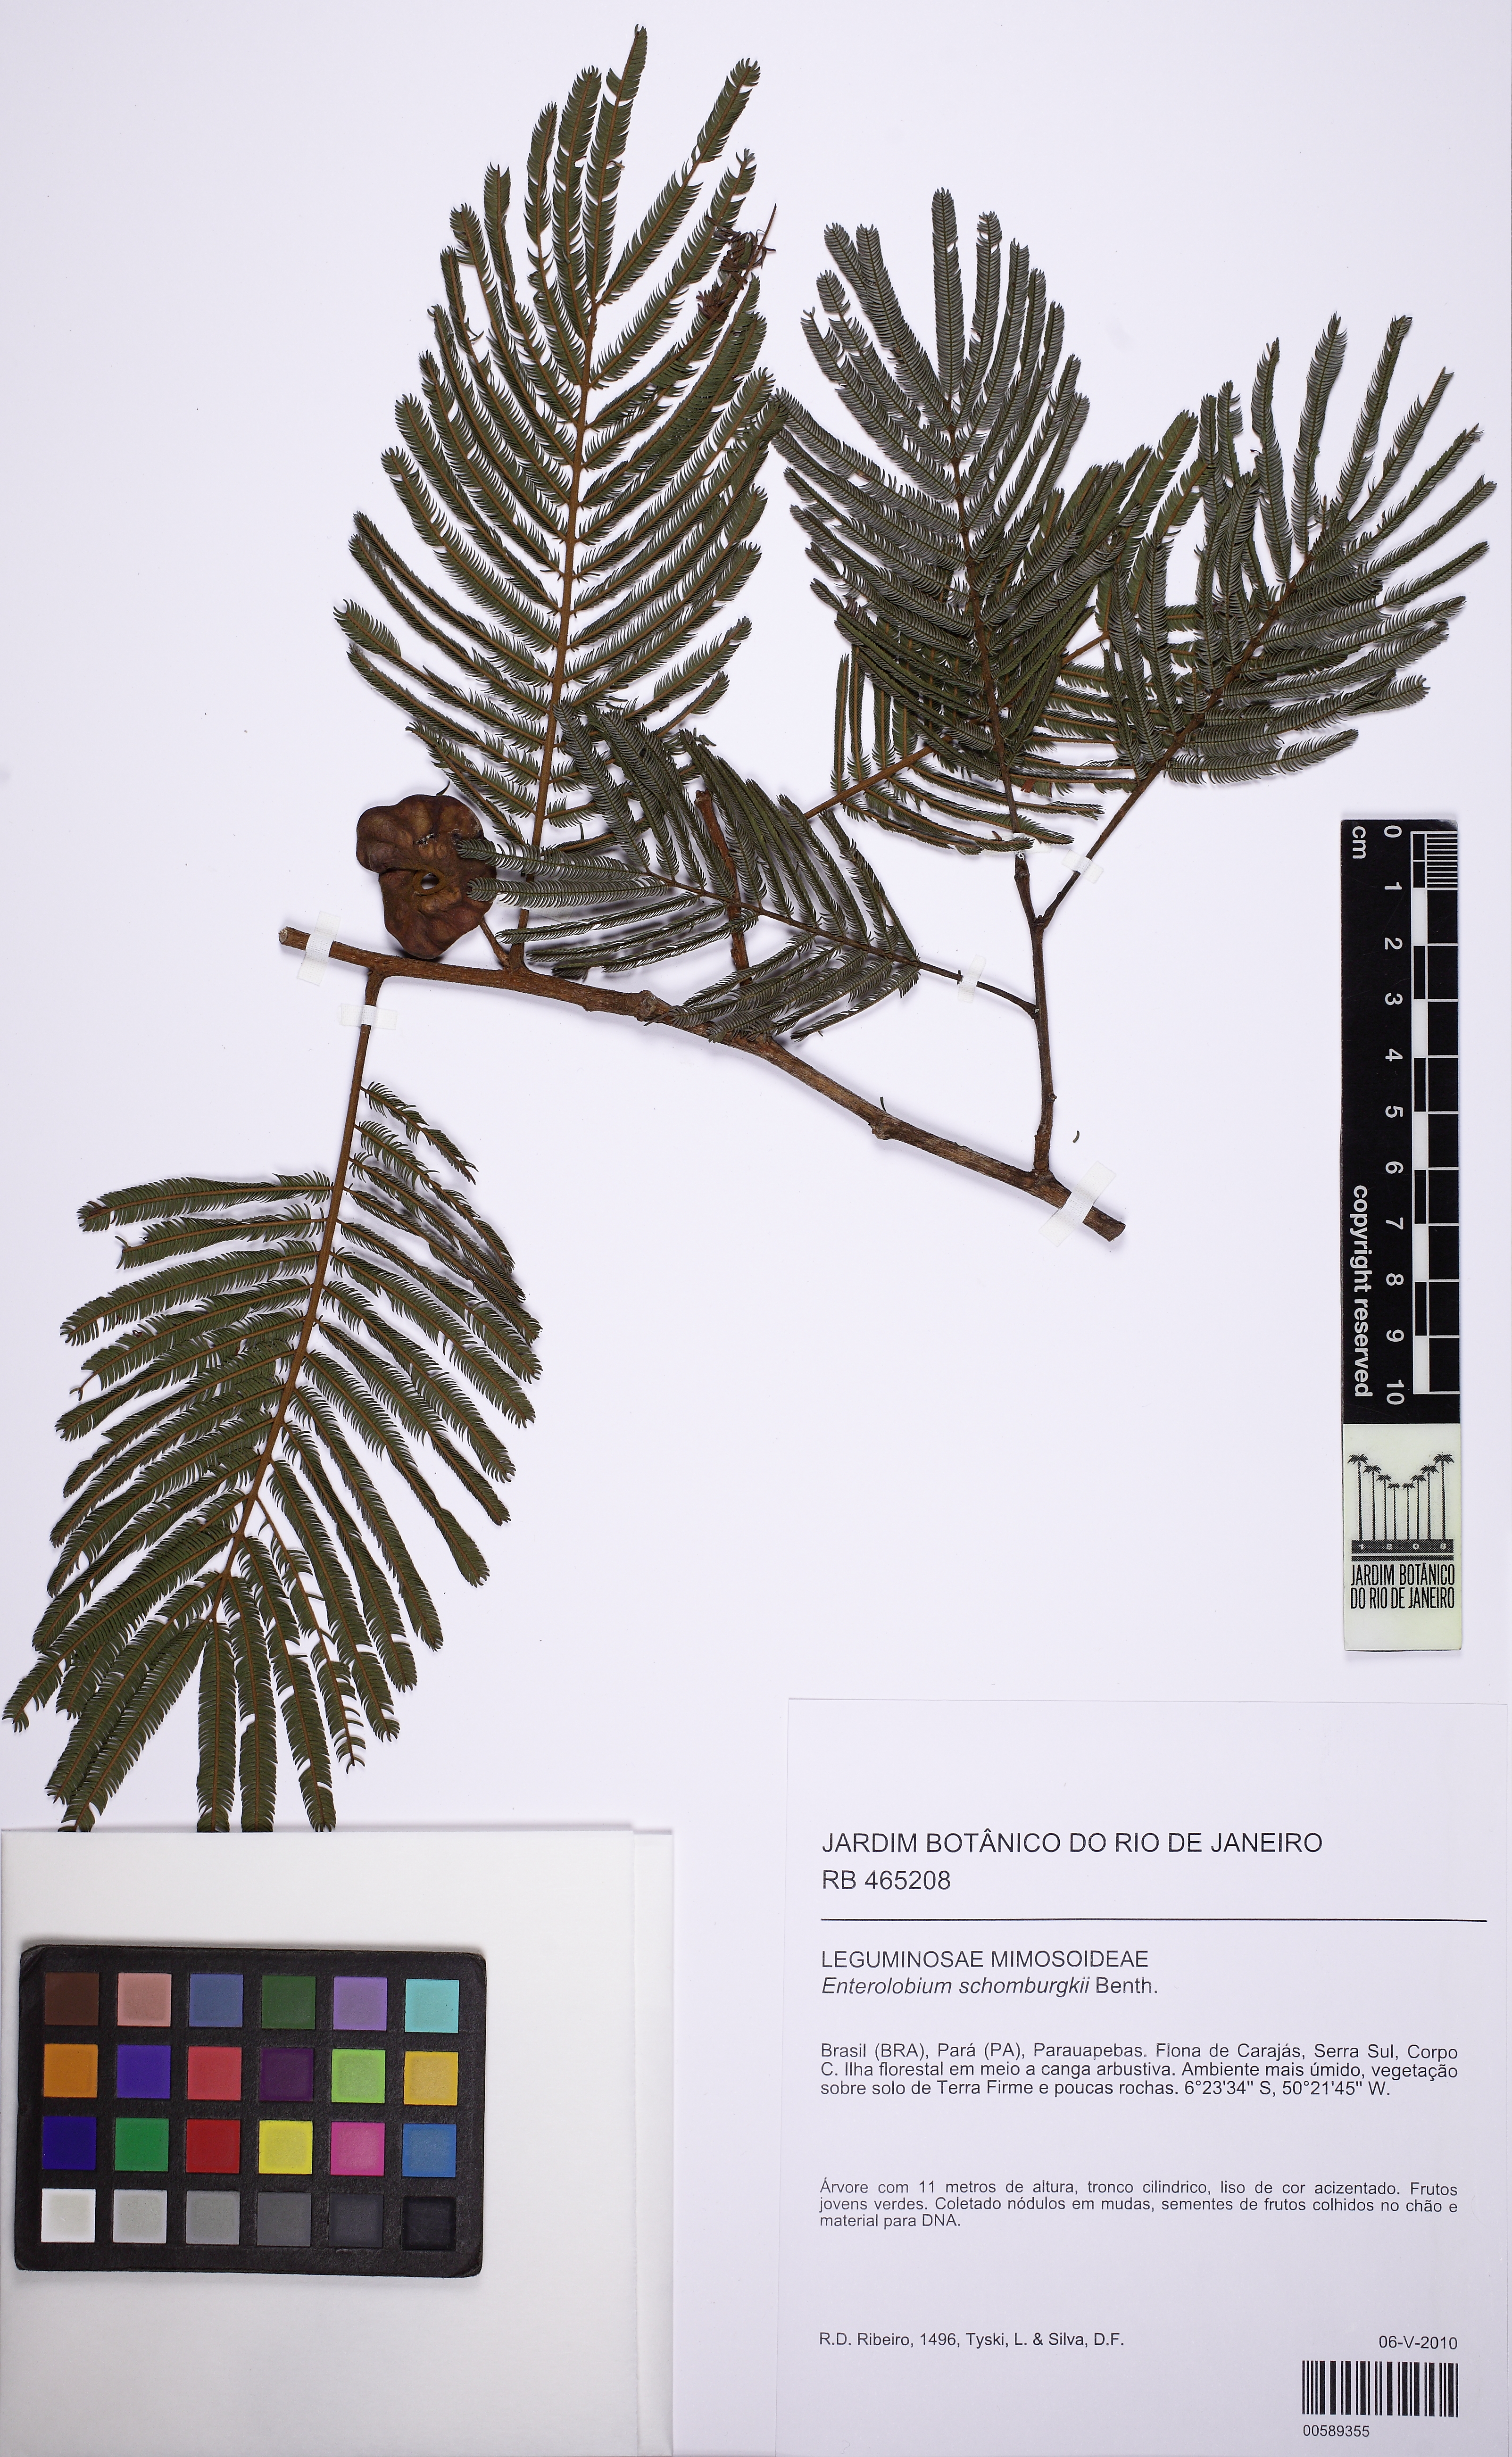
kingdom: Plantae
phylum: Tracheophyta
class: Magnoliopsida
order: Fabales
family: Fabaceae
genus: Enterolobium
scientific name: Enterolobium schomburgkii
